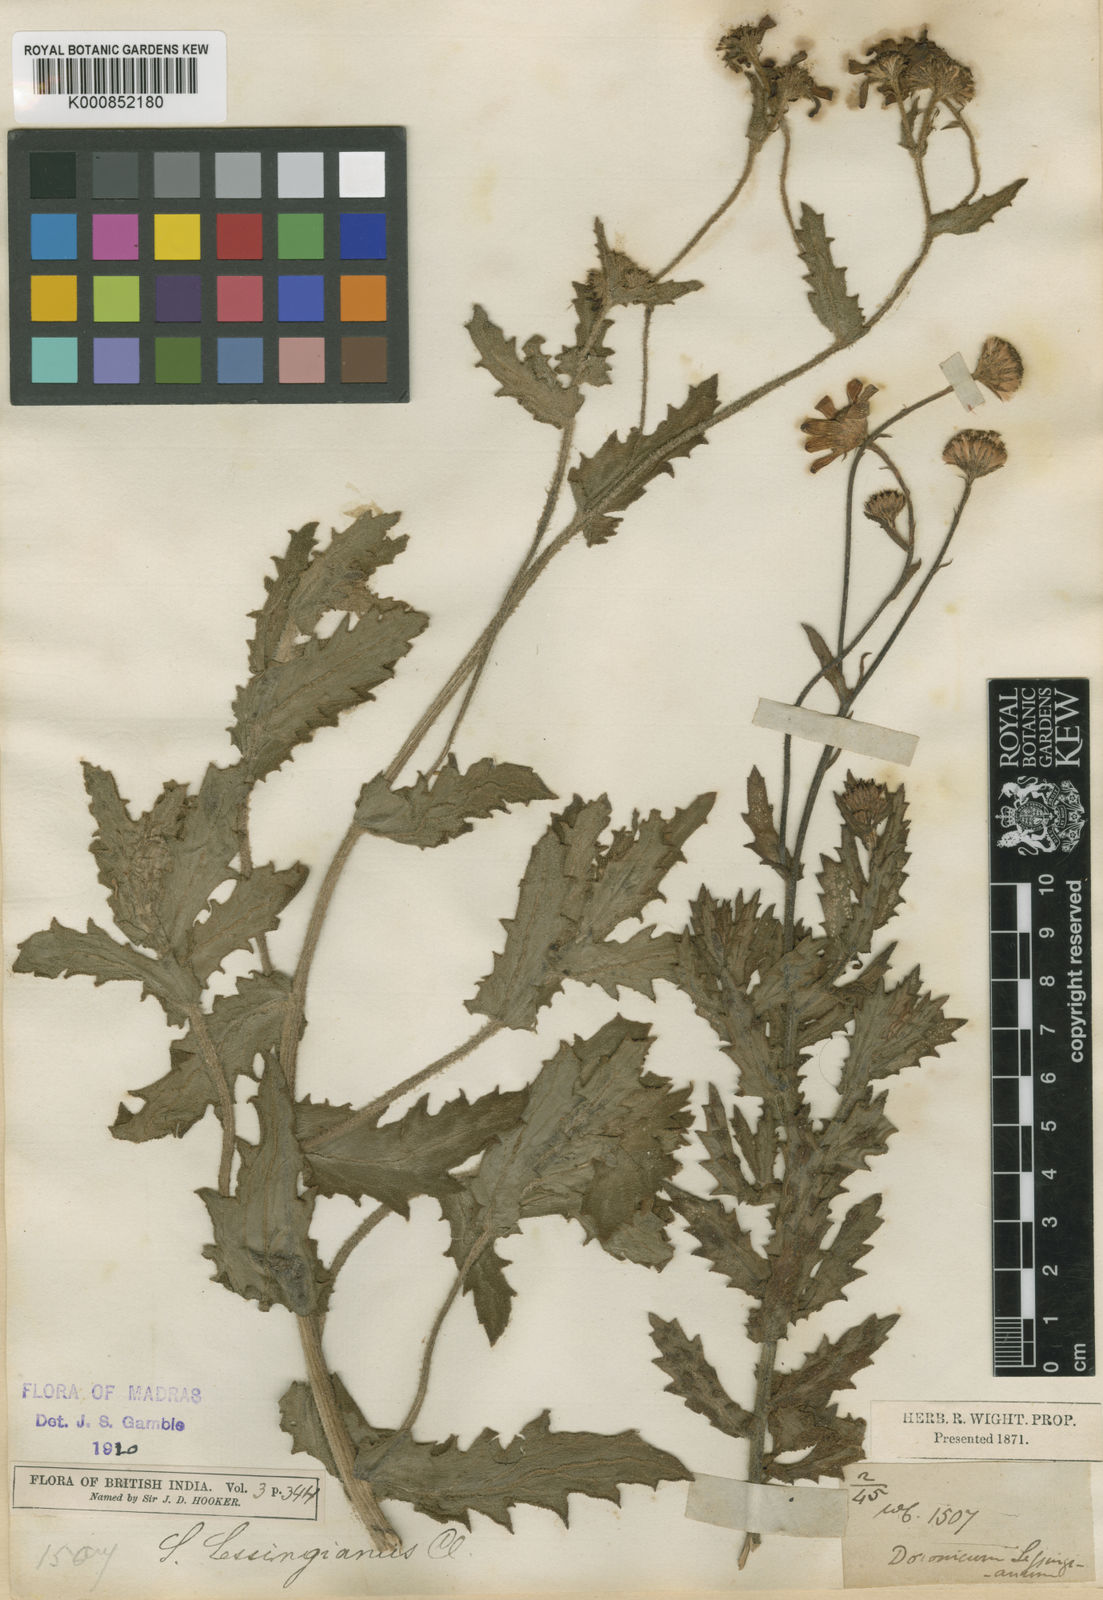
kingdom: Plantae
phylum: Tracheophyta
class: Magnoliopsida
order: Asterales
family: Asteraceae
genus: Senecio
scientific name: Senecio lawsonii
